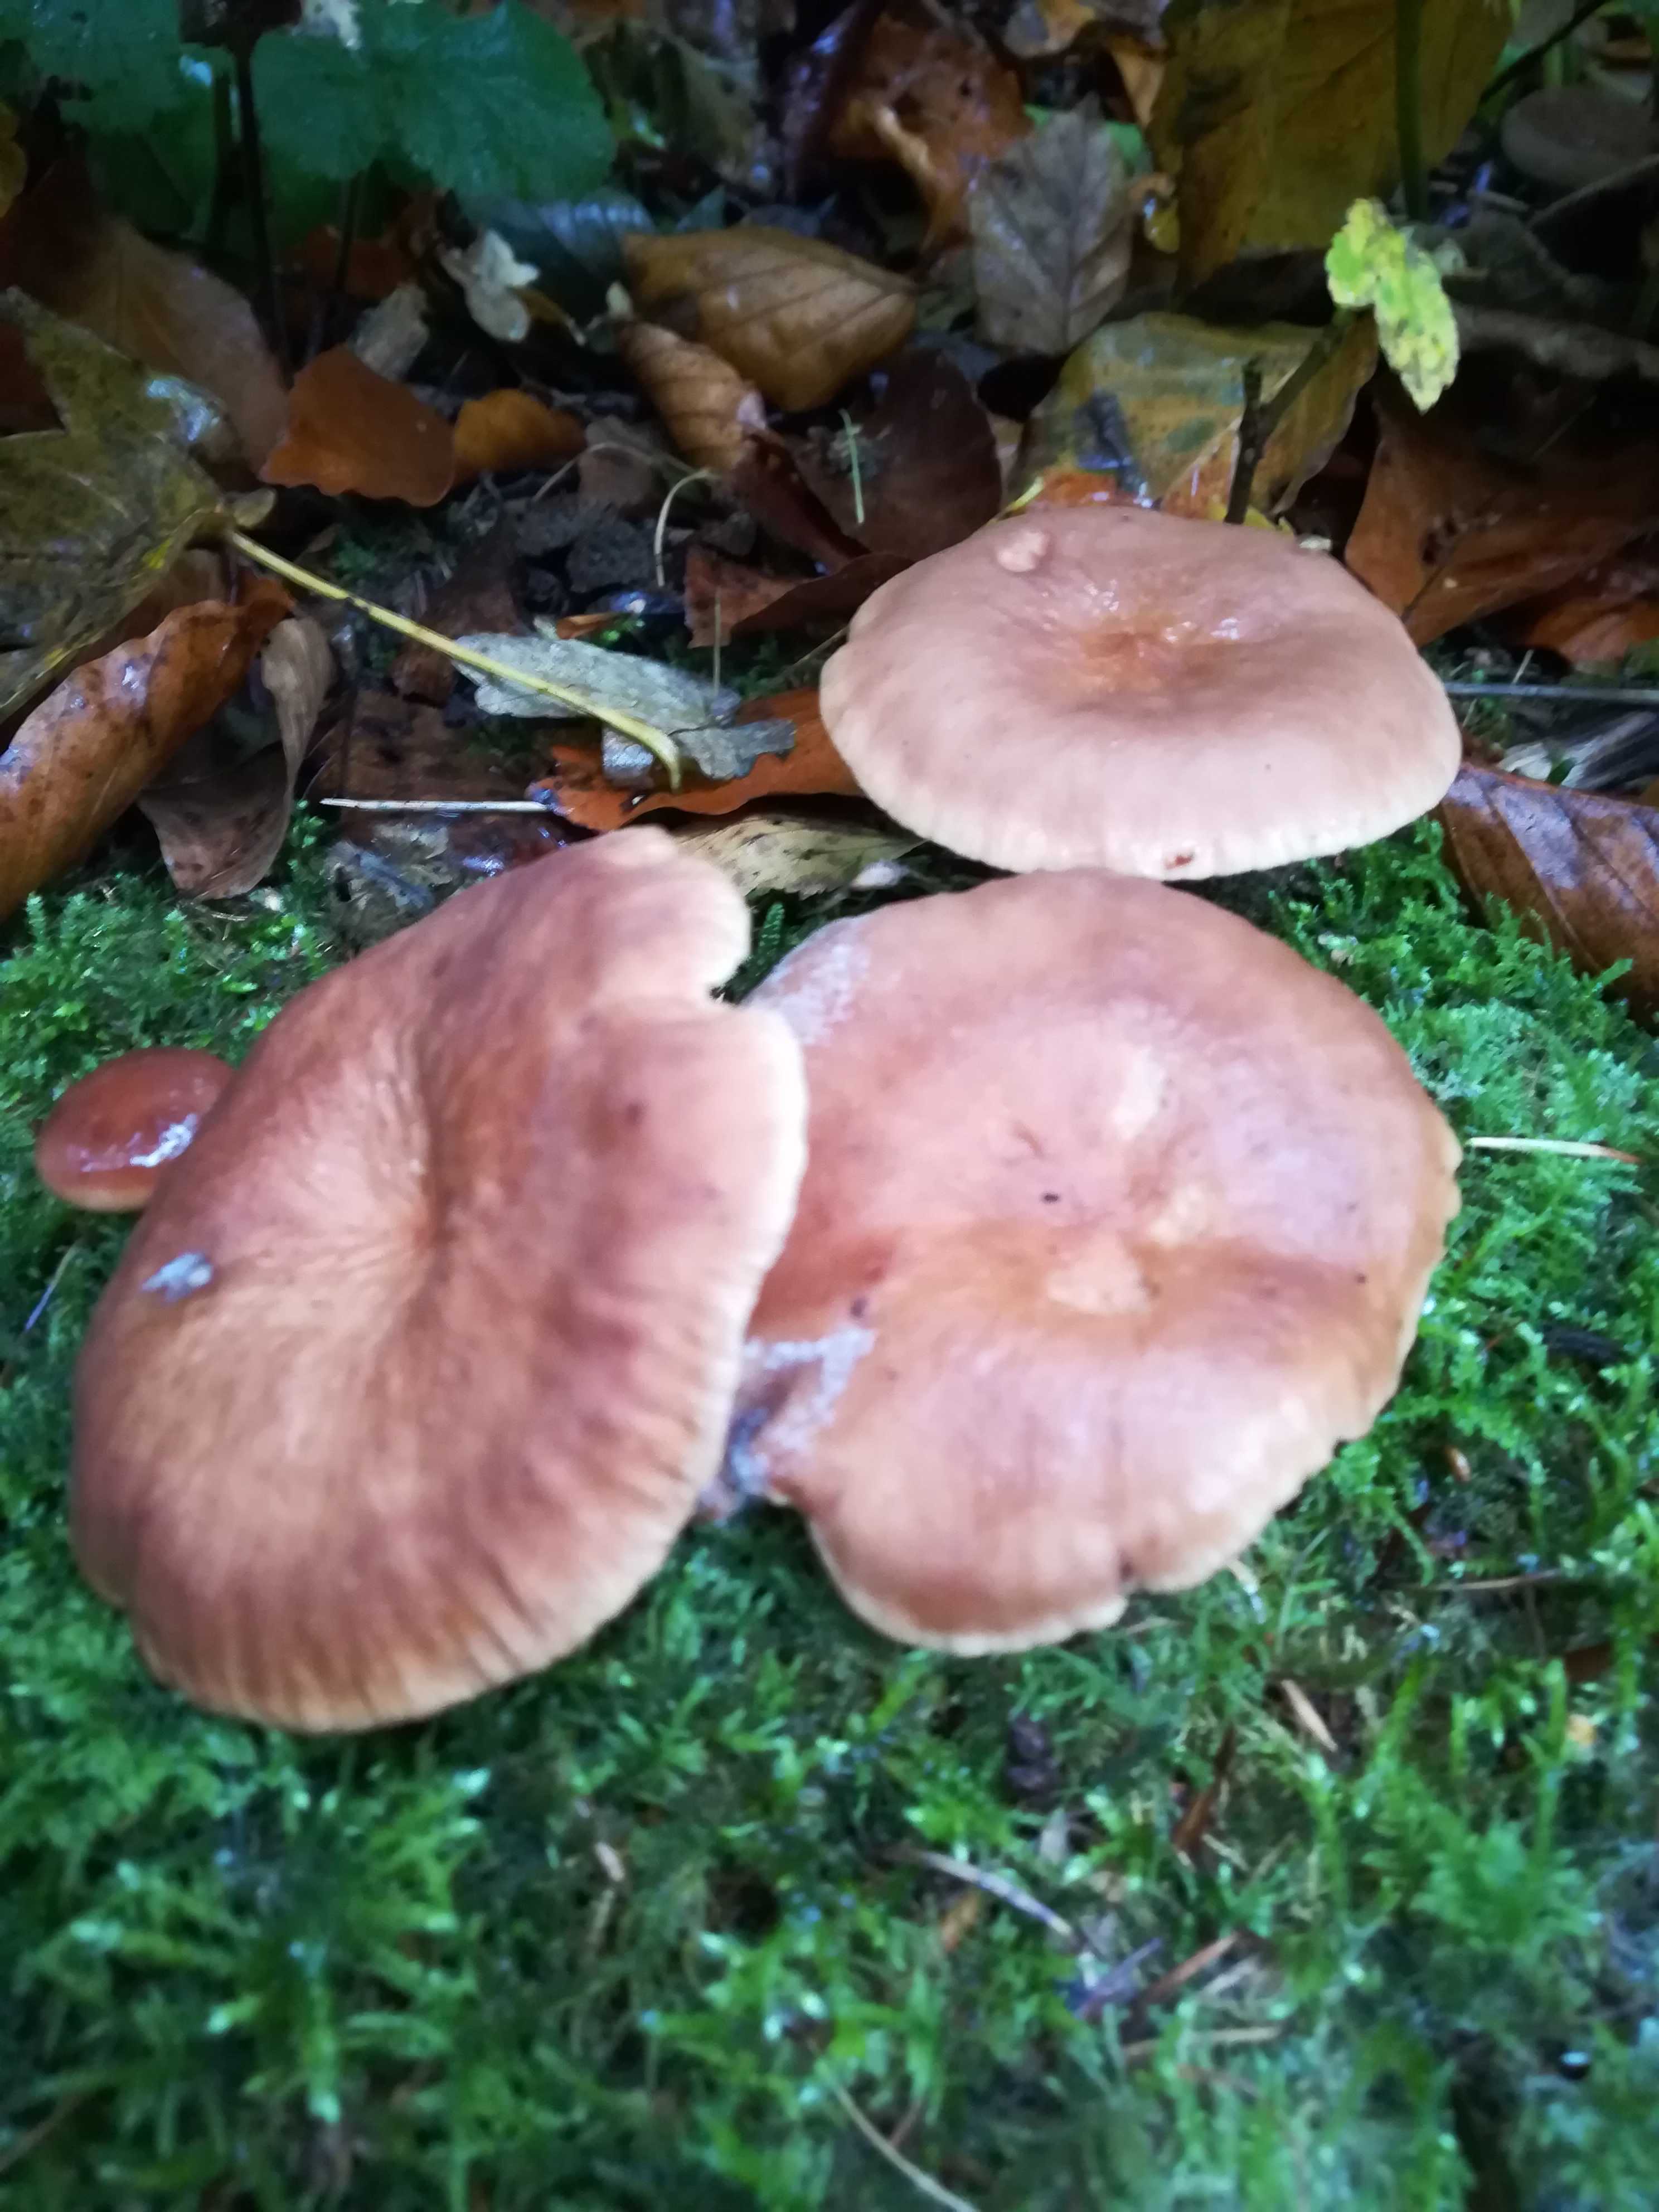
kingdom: Fungi
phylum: Basidiomycota
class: Agaricomycetes
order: Russulales
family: Russulaceae
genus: Lactarius
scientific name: Lactarius
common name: mælkehat
